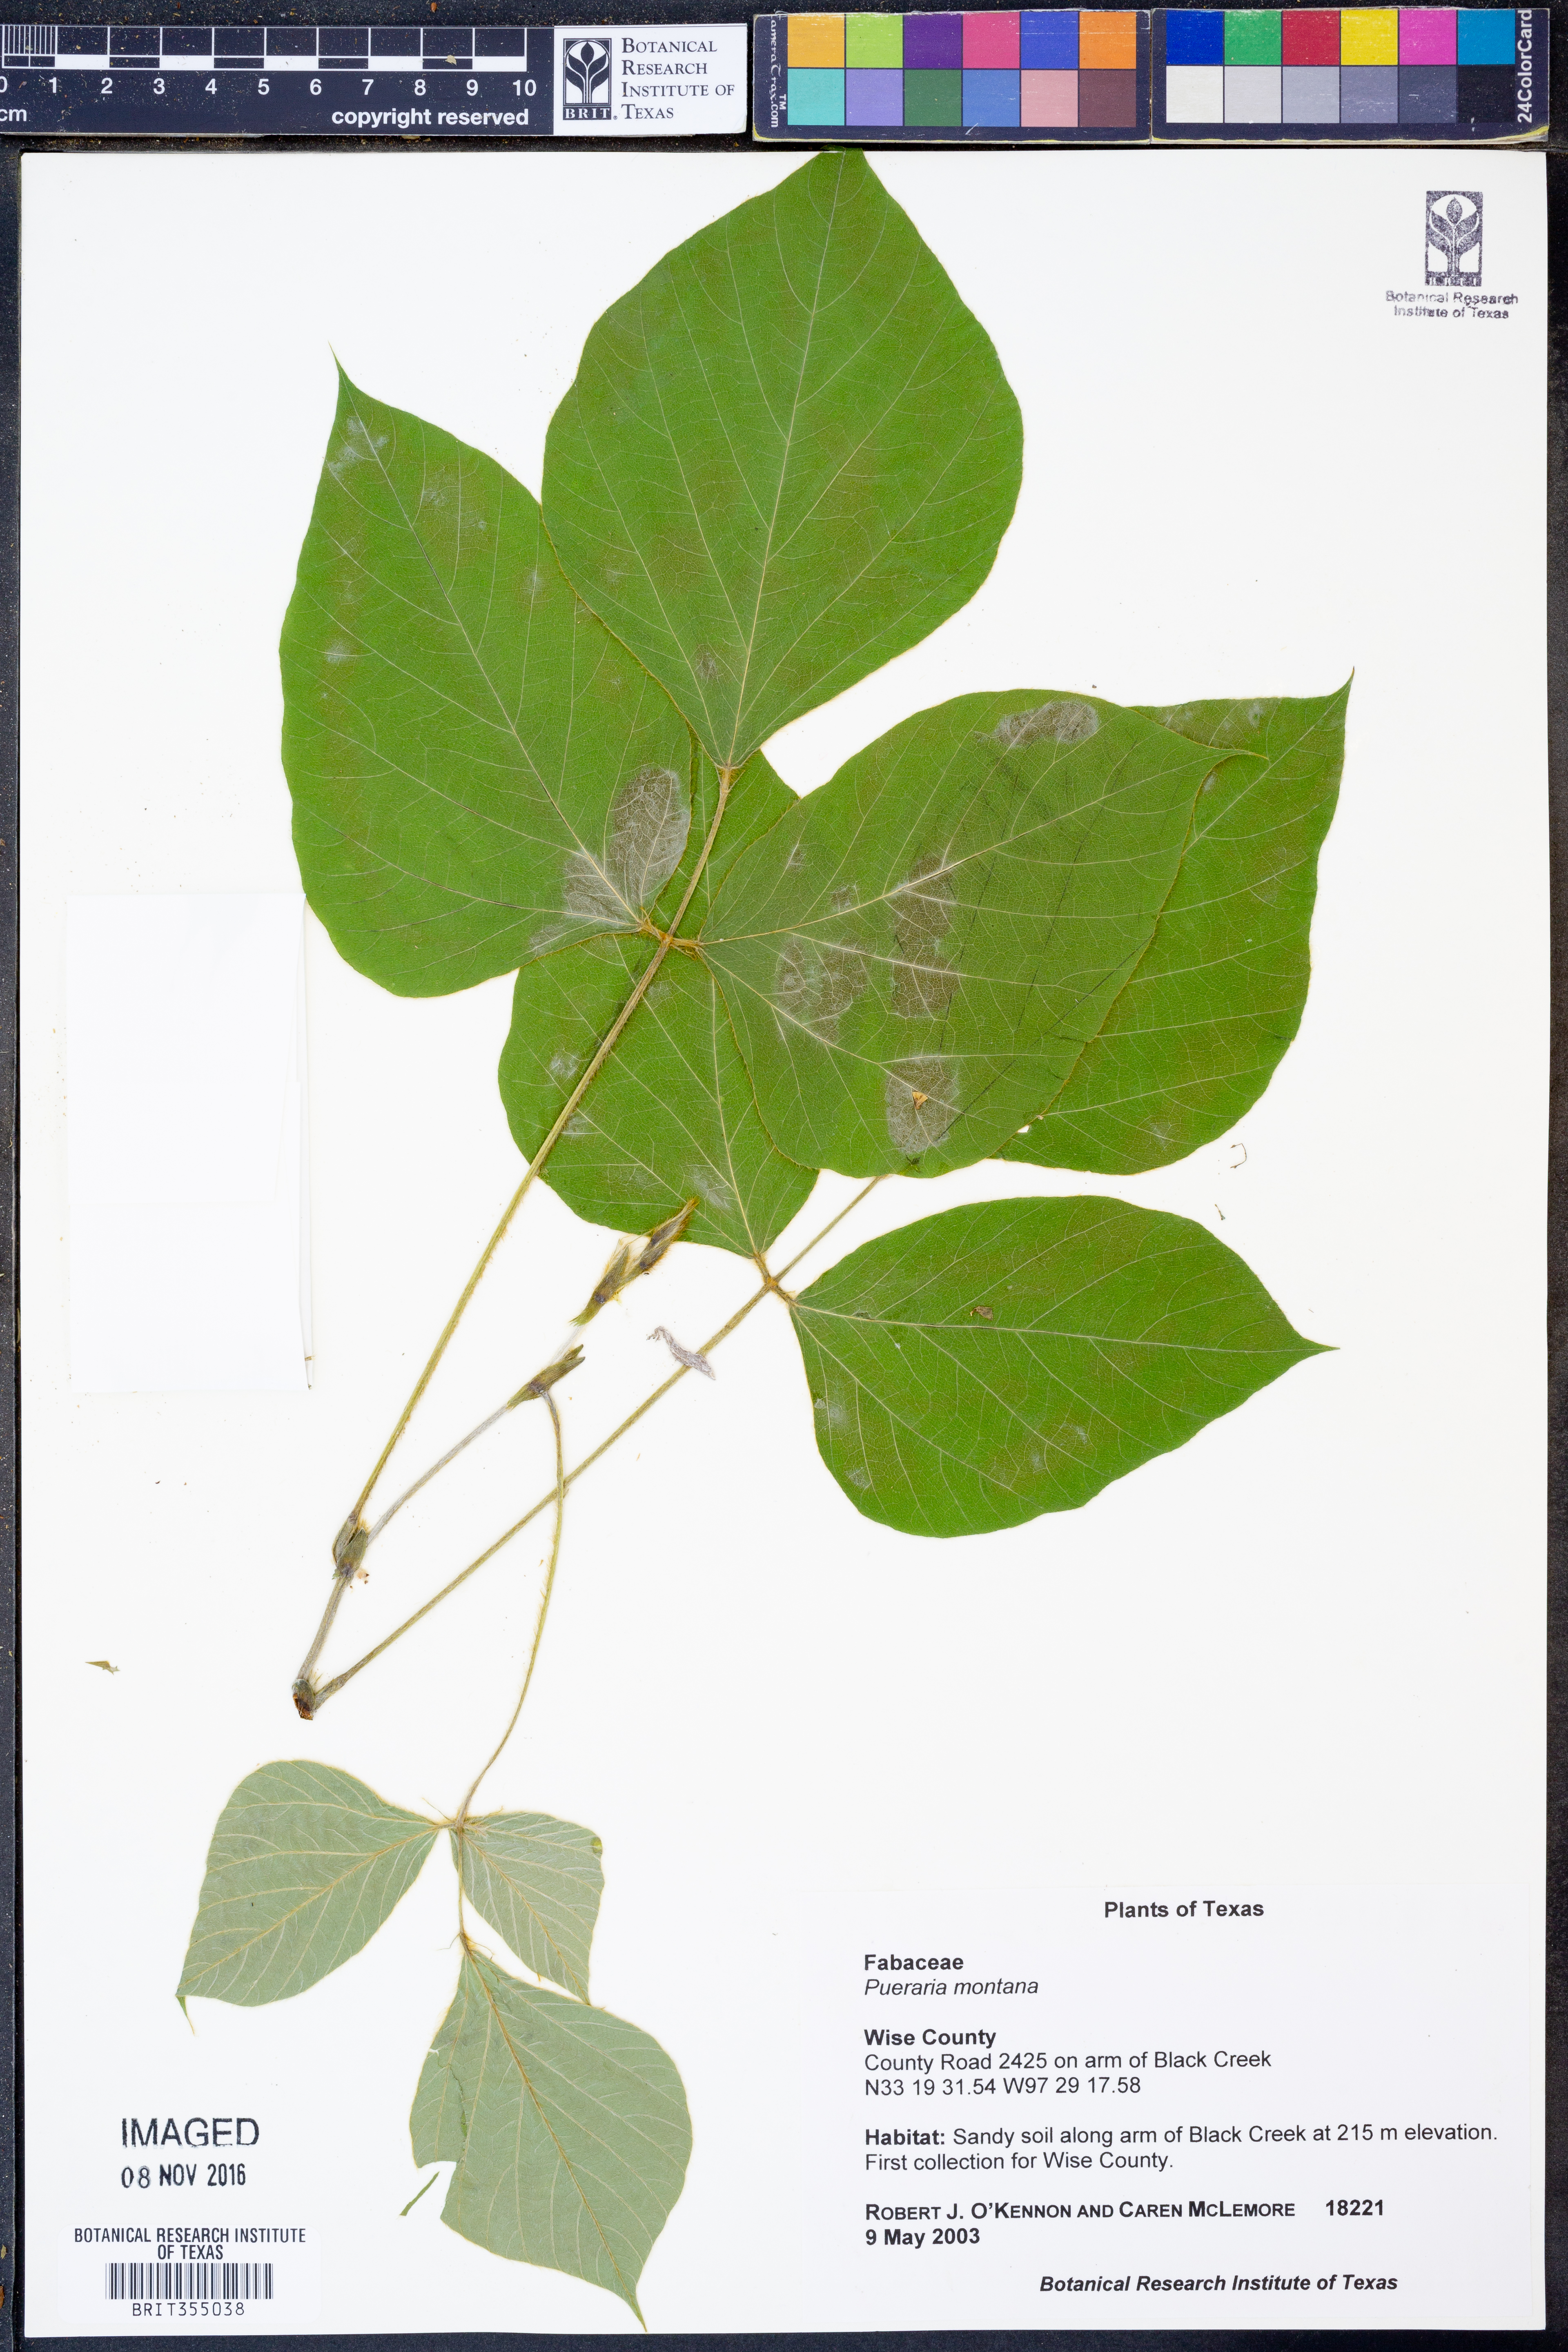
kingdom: Plantae
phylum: Tracheophyta
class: Magnoliopsida
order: Fabales
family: Fabaceae
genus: Pueraria
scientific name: Pueraria montana
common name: Kudzu
